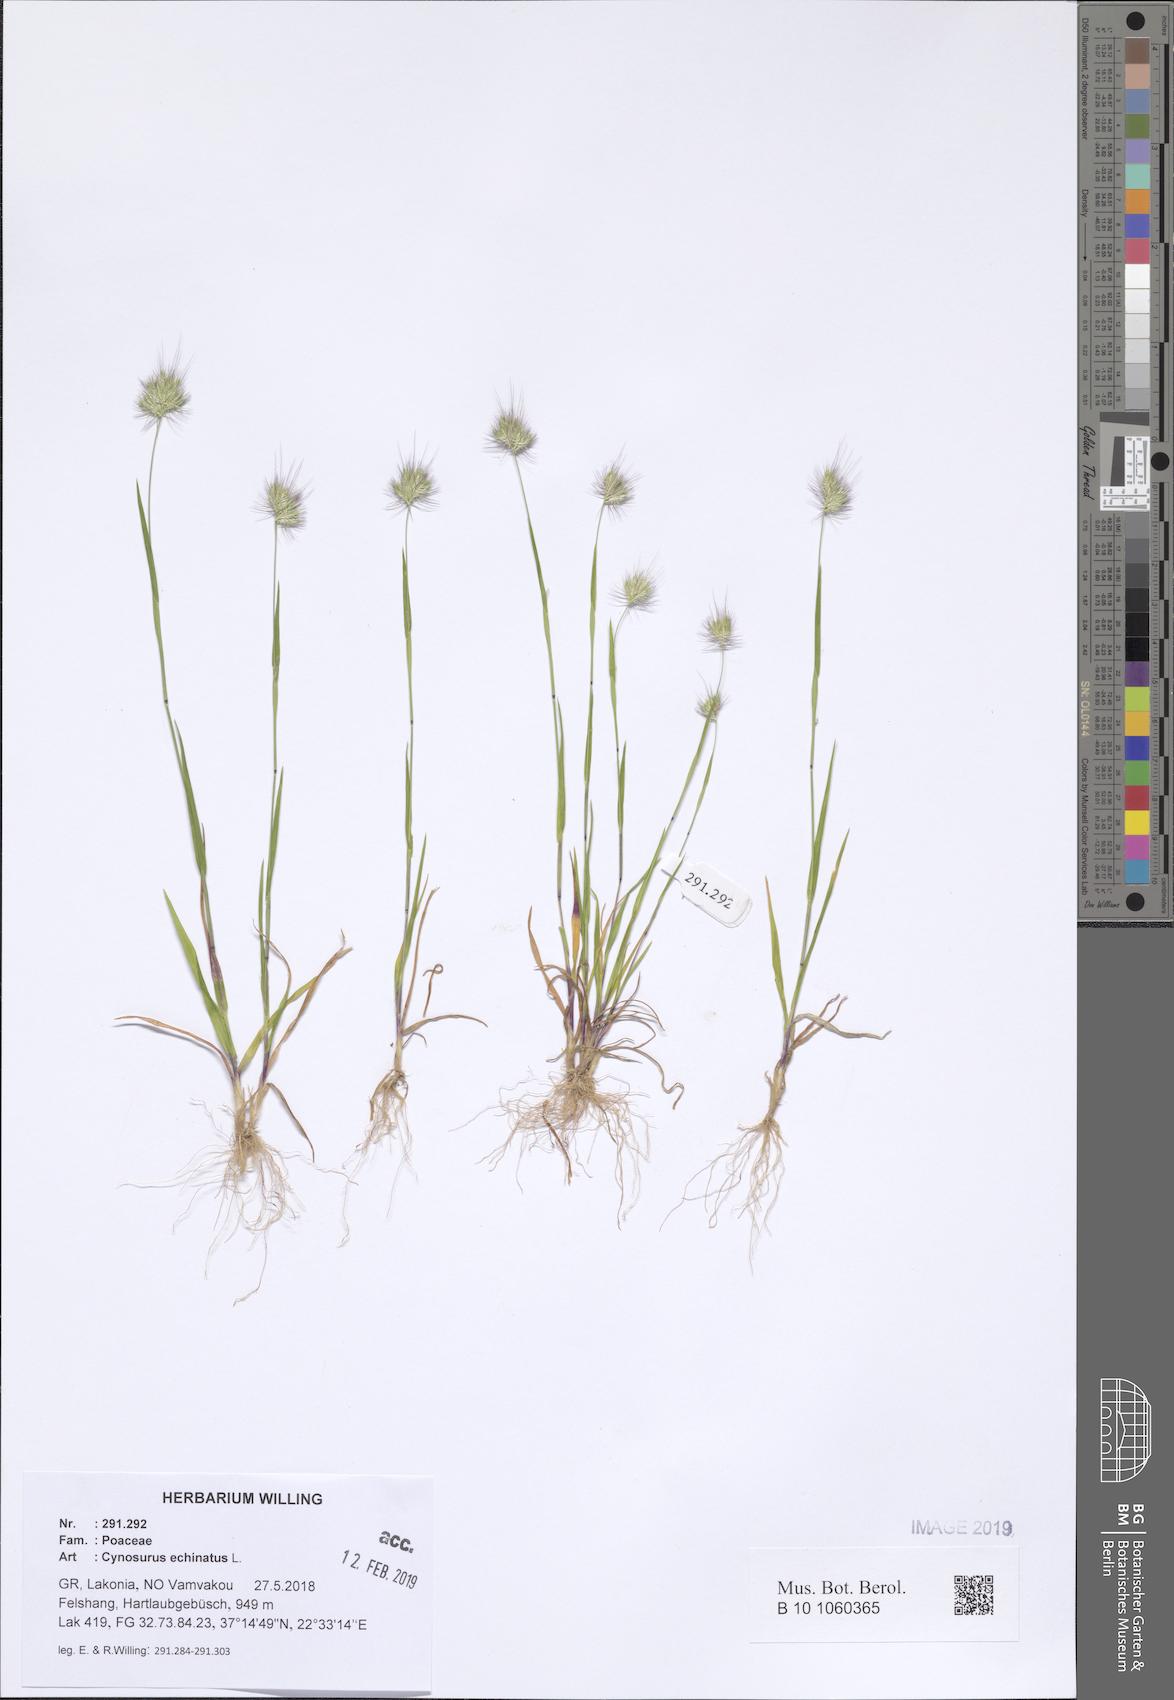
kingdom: Plantae
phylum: Tracheophyta
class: Liliopsida
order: Poales
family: Poaceae
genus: Cynosurus
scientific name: Cynosurus echinatus
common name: Rough dog's-tail
